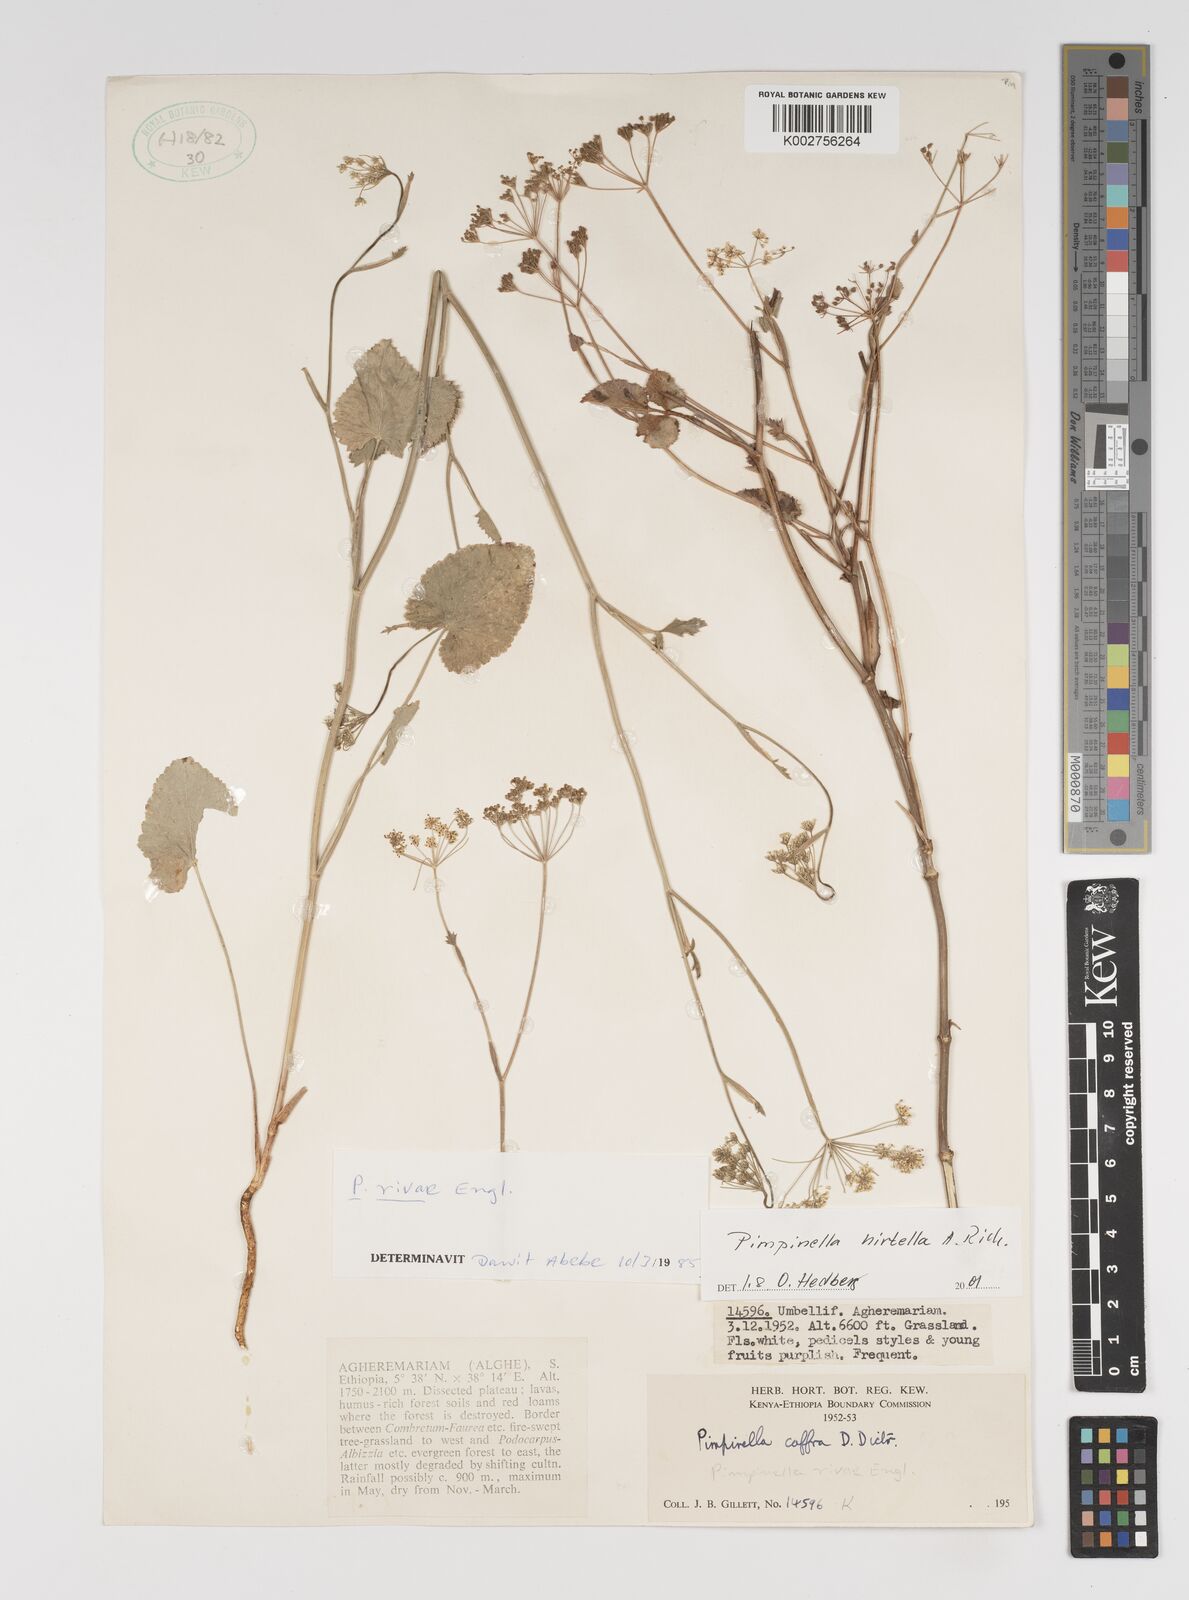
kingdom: Plantae
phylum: Tracheophyta
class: Magnoliopsida
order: Apiales
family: Apiaceae
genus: Pimpinella
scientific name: Pimpinella hirtella
